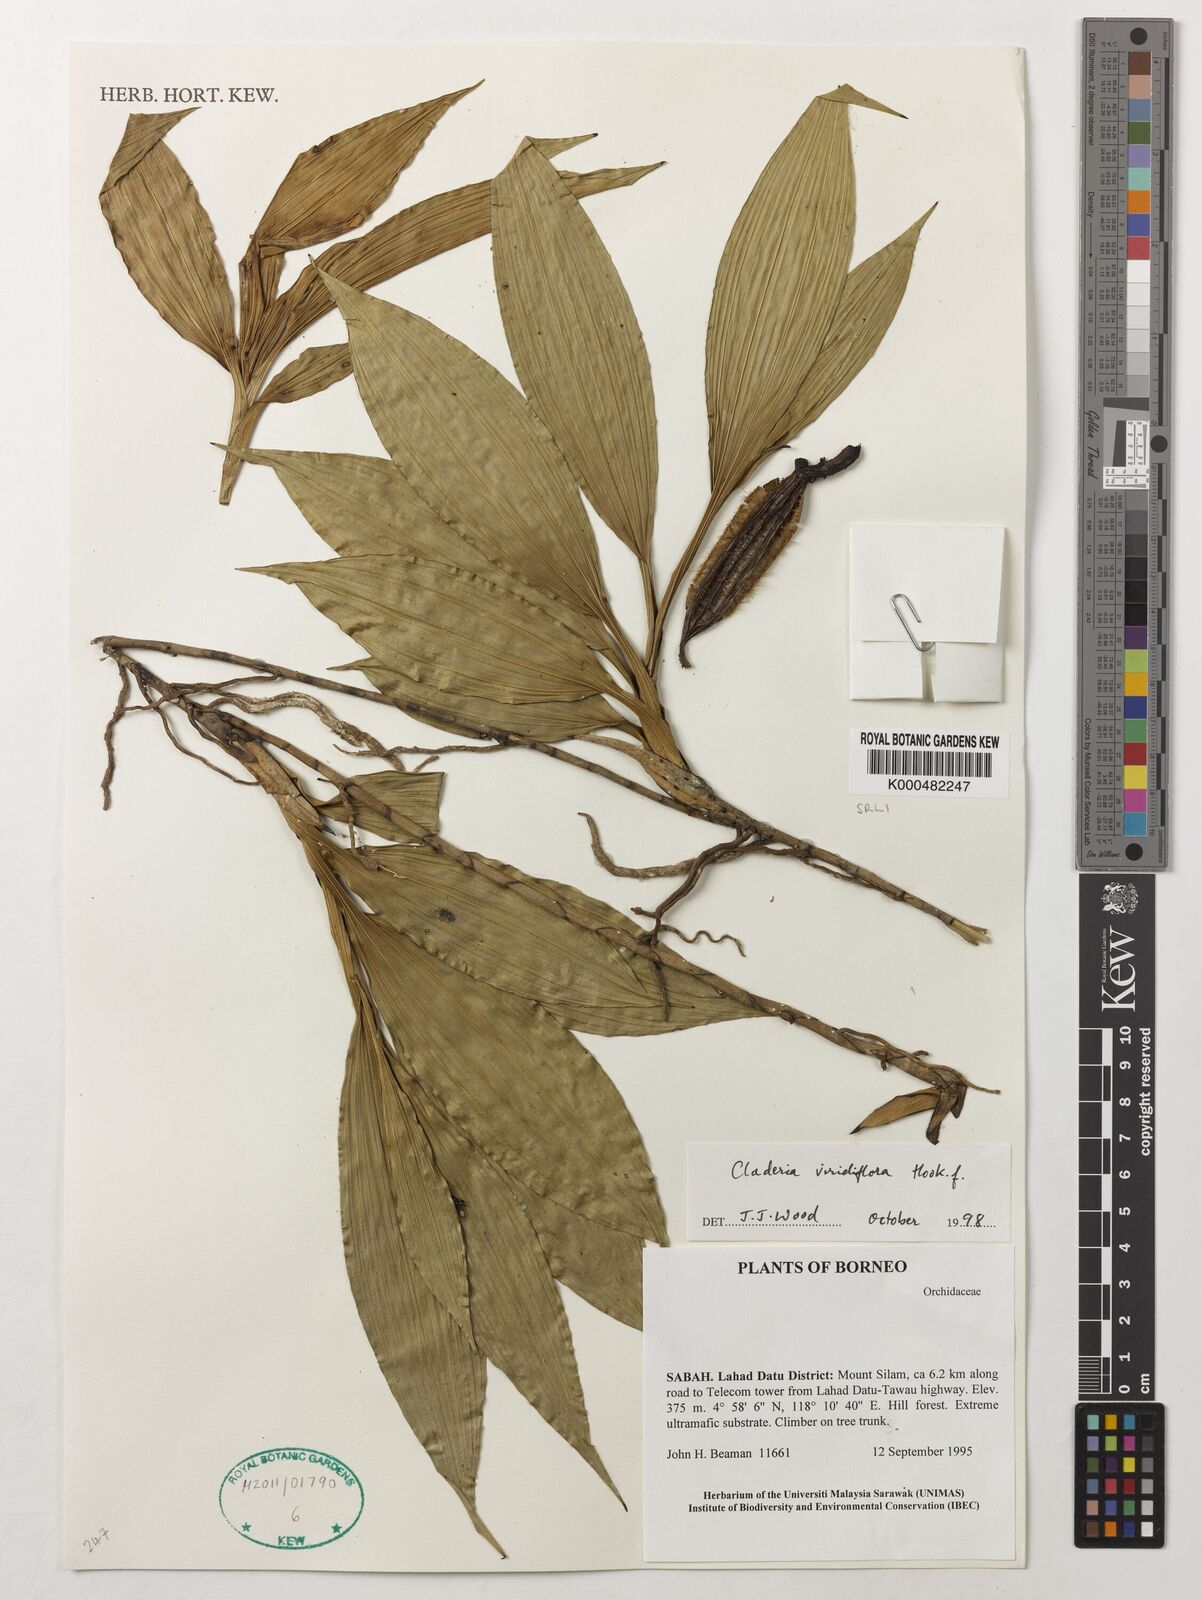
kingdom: Plantae
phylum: Tracheophyta
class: Liliopsida
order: Asparagales
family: Orchidaceae
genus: Claderia
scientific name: Claderia
